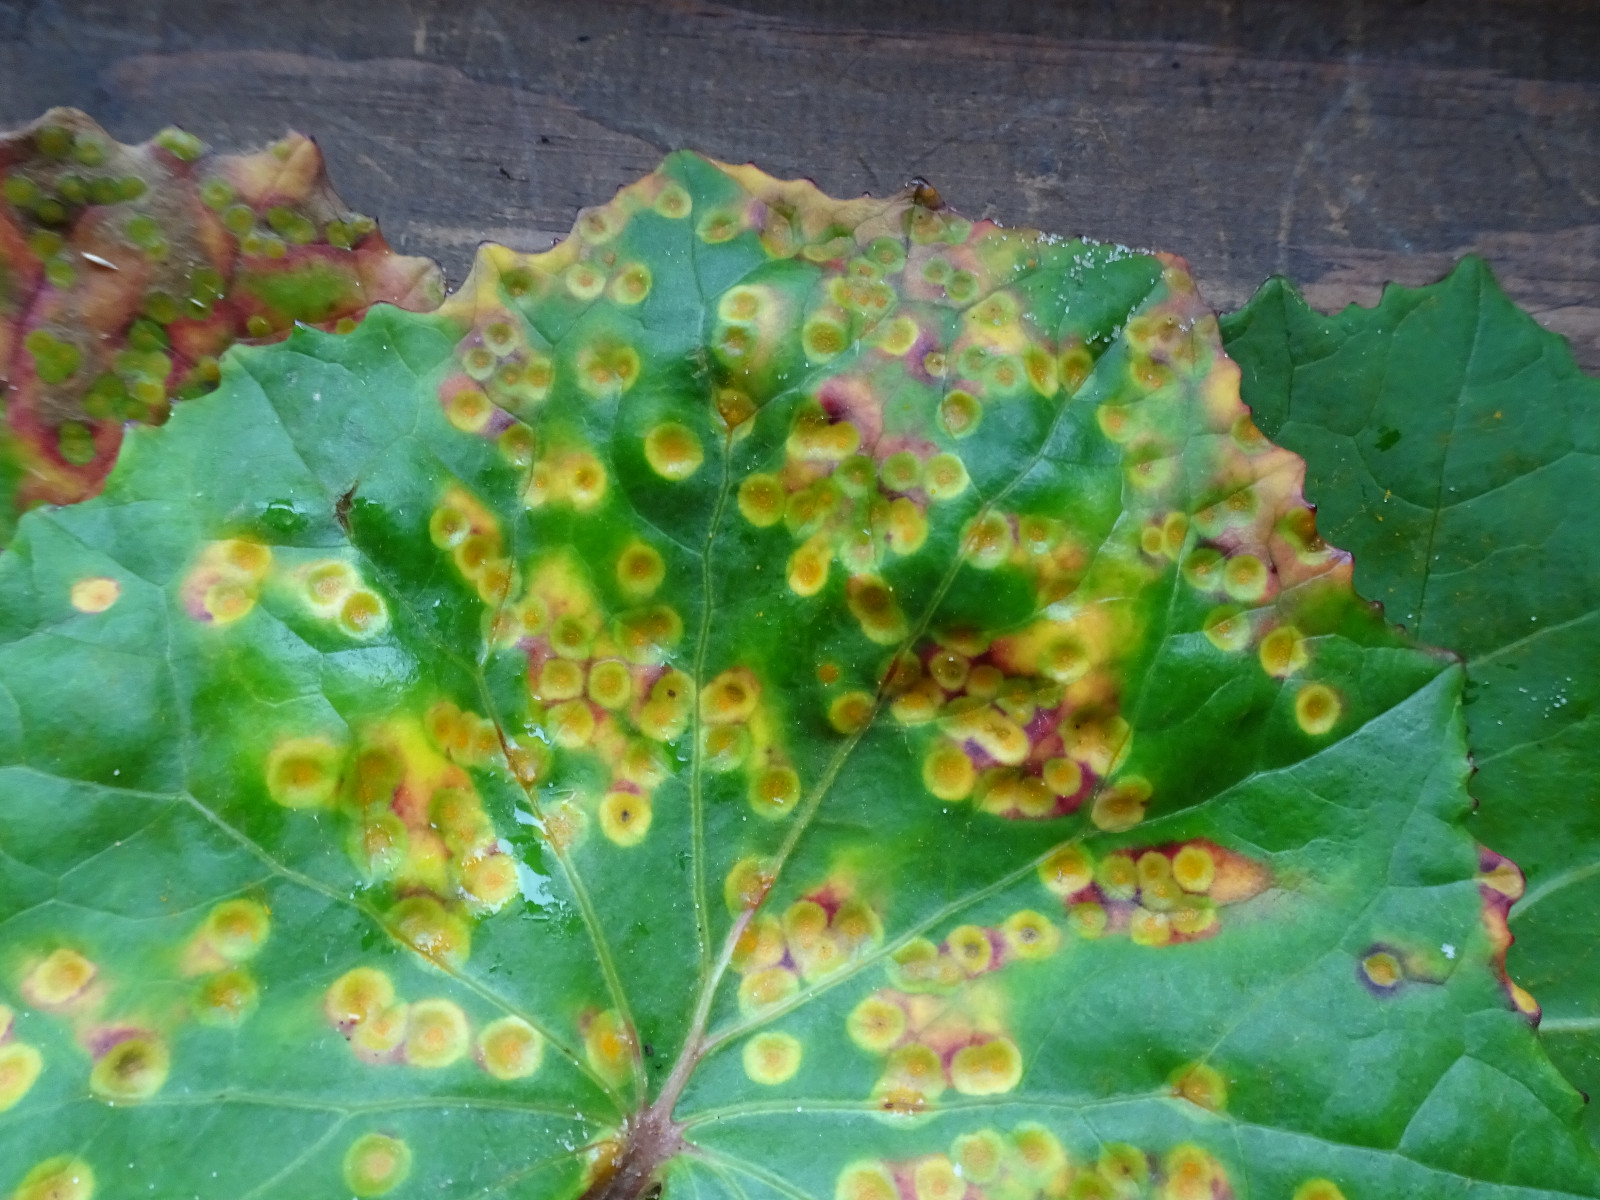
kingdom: Fungi
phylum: Basidiomycota
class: Pucciniomycetes
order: Pucciniales
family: Pucciniaceae
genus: Puccinia
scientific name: Puccinia poarum
